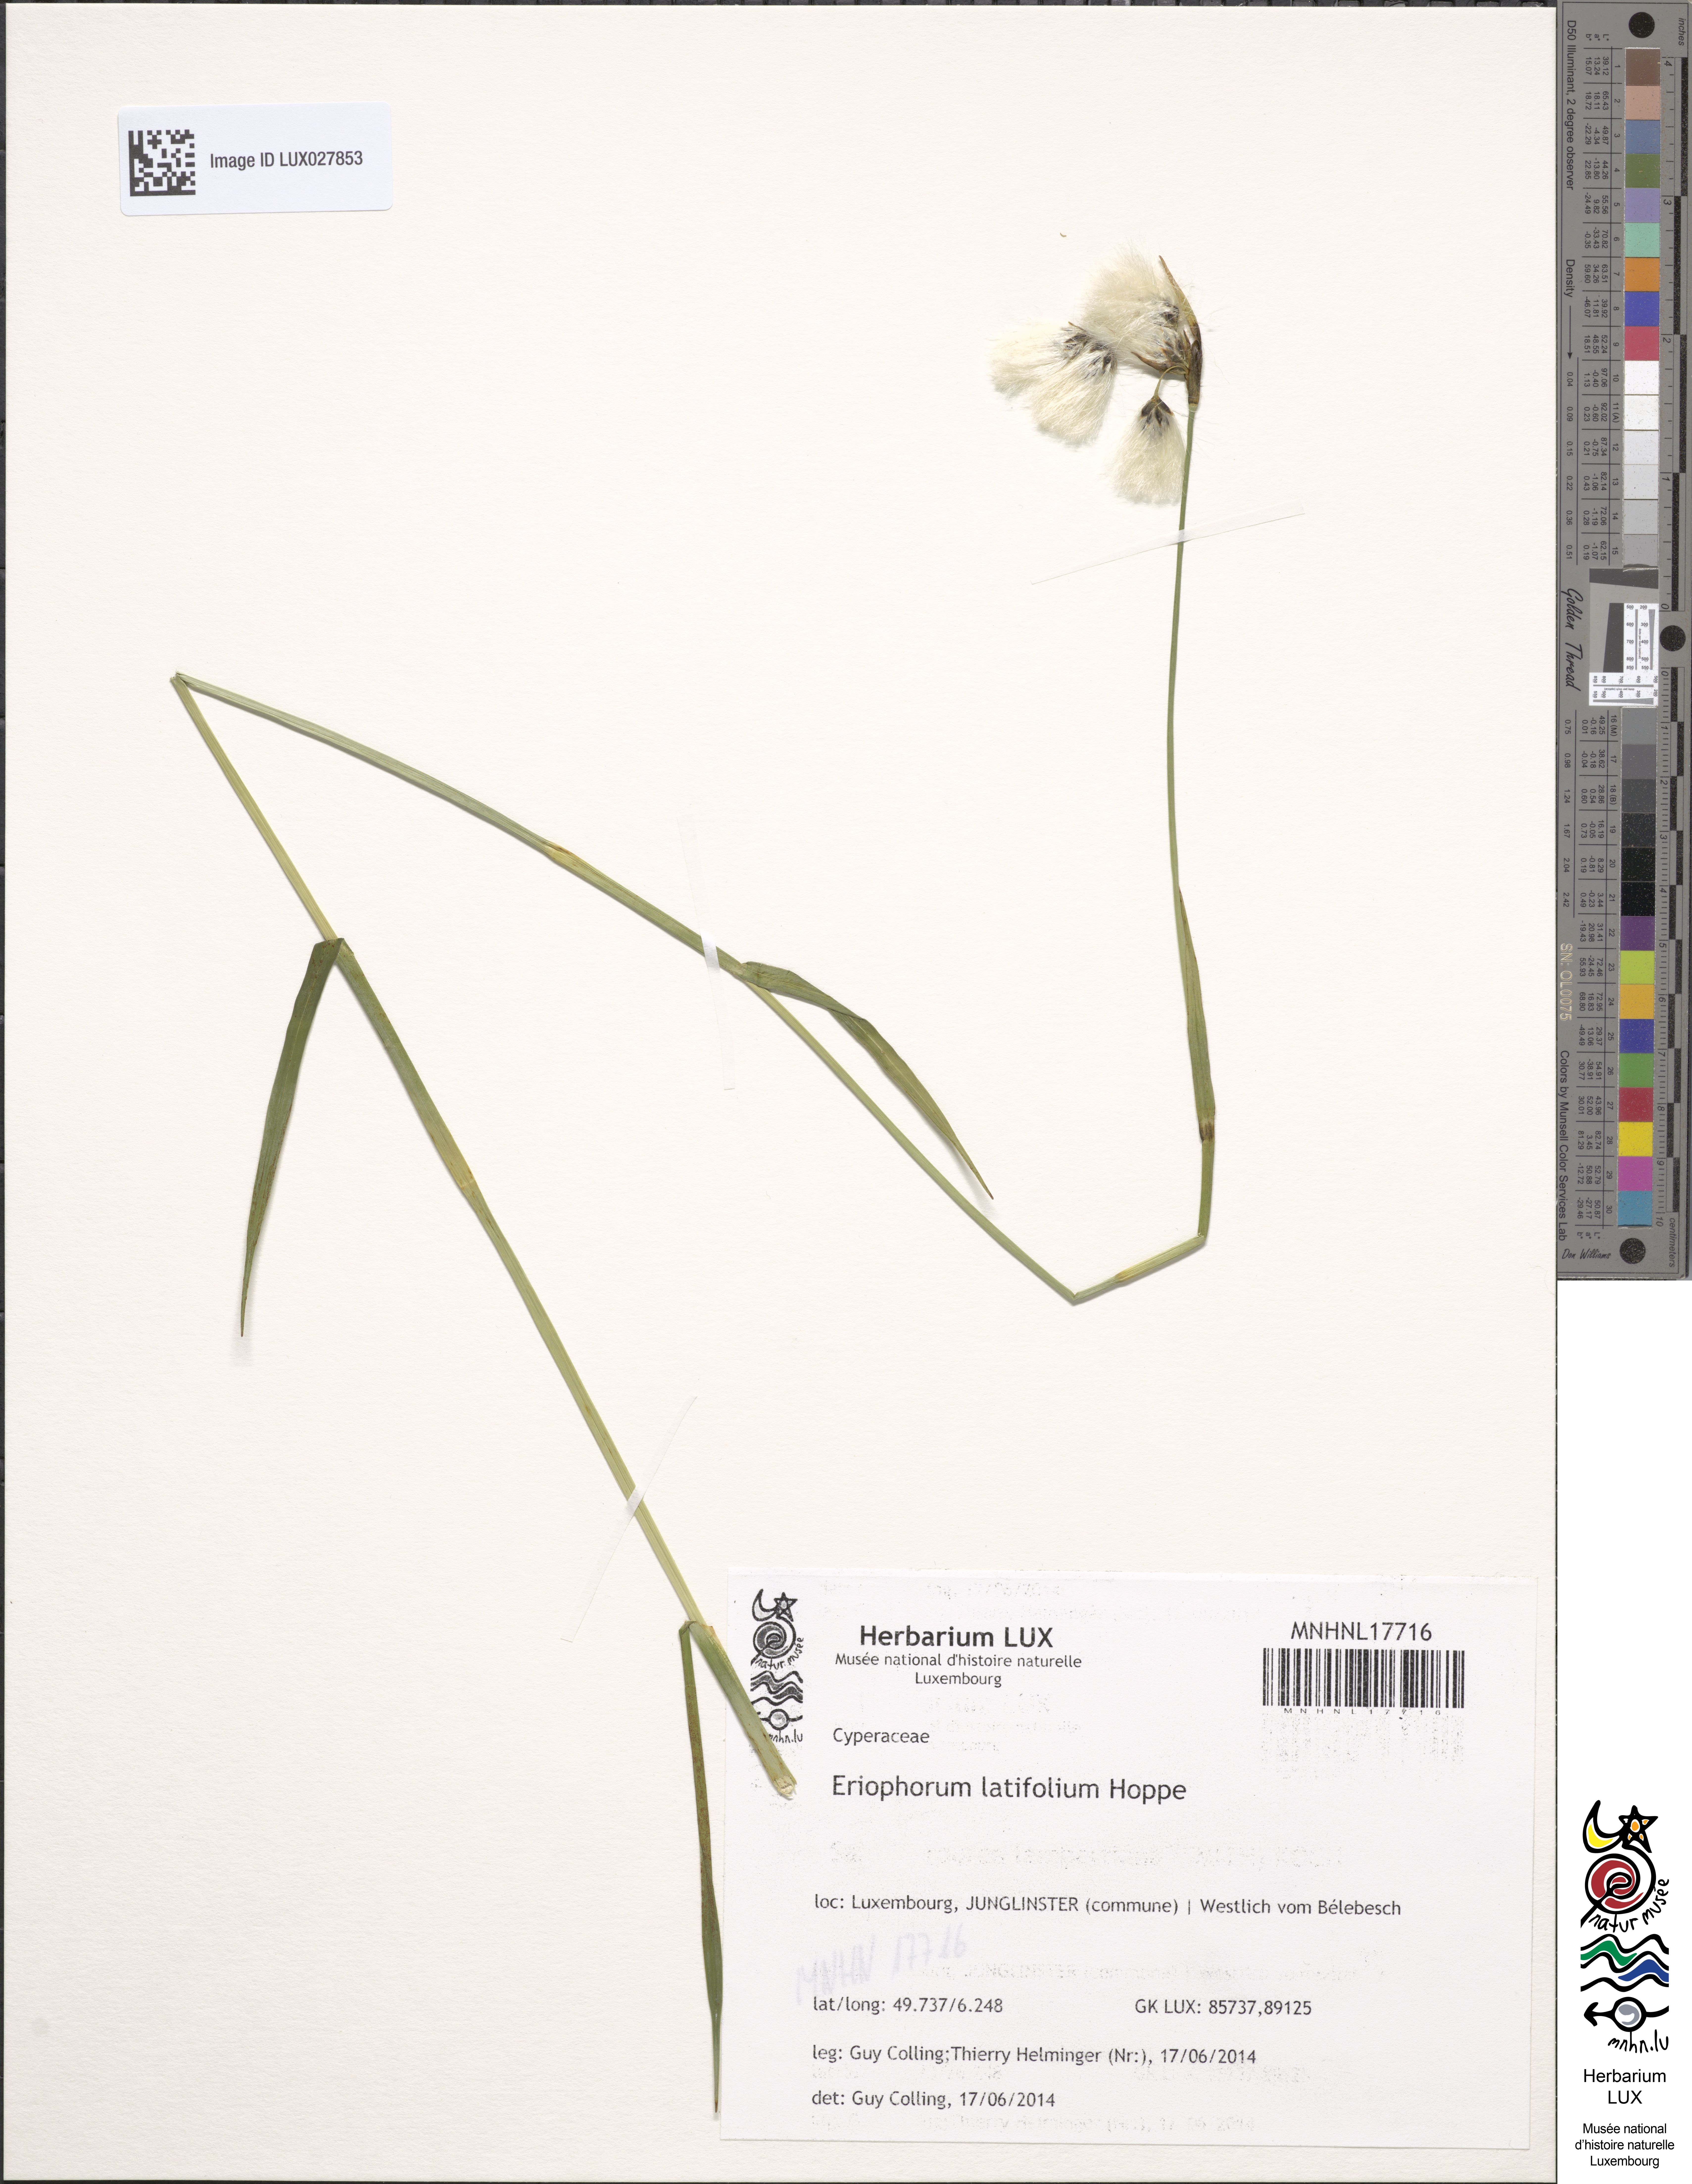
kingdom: Plantae
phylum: Tracheophyta
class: Liliopsida
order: Poales
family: Cyperaceae
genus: Eriophorum
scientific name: Eriophorum latifolium
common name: Broad-leaved cottongrass
